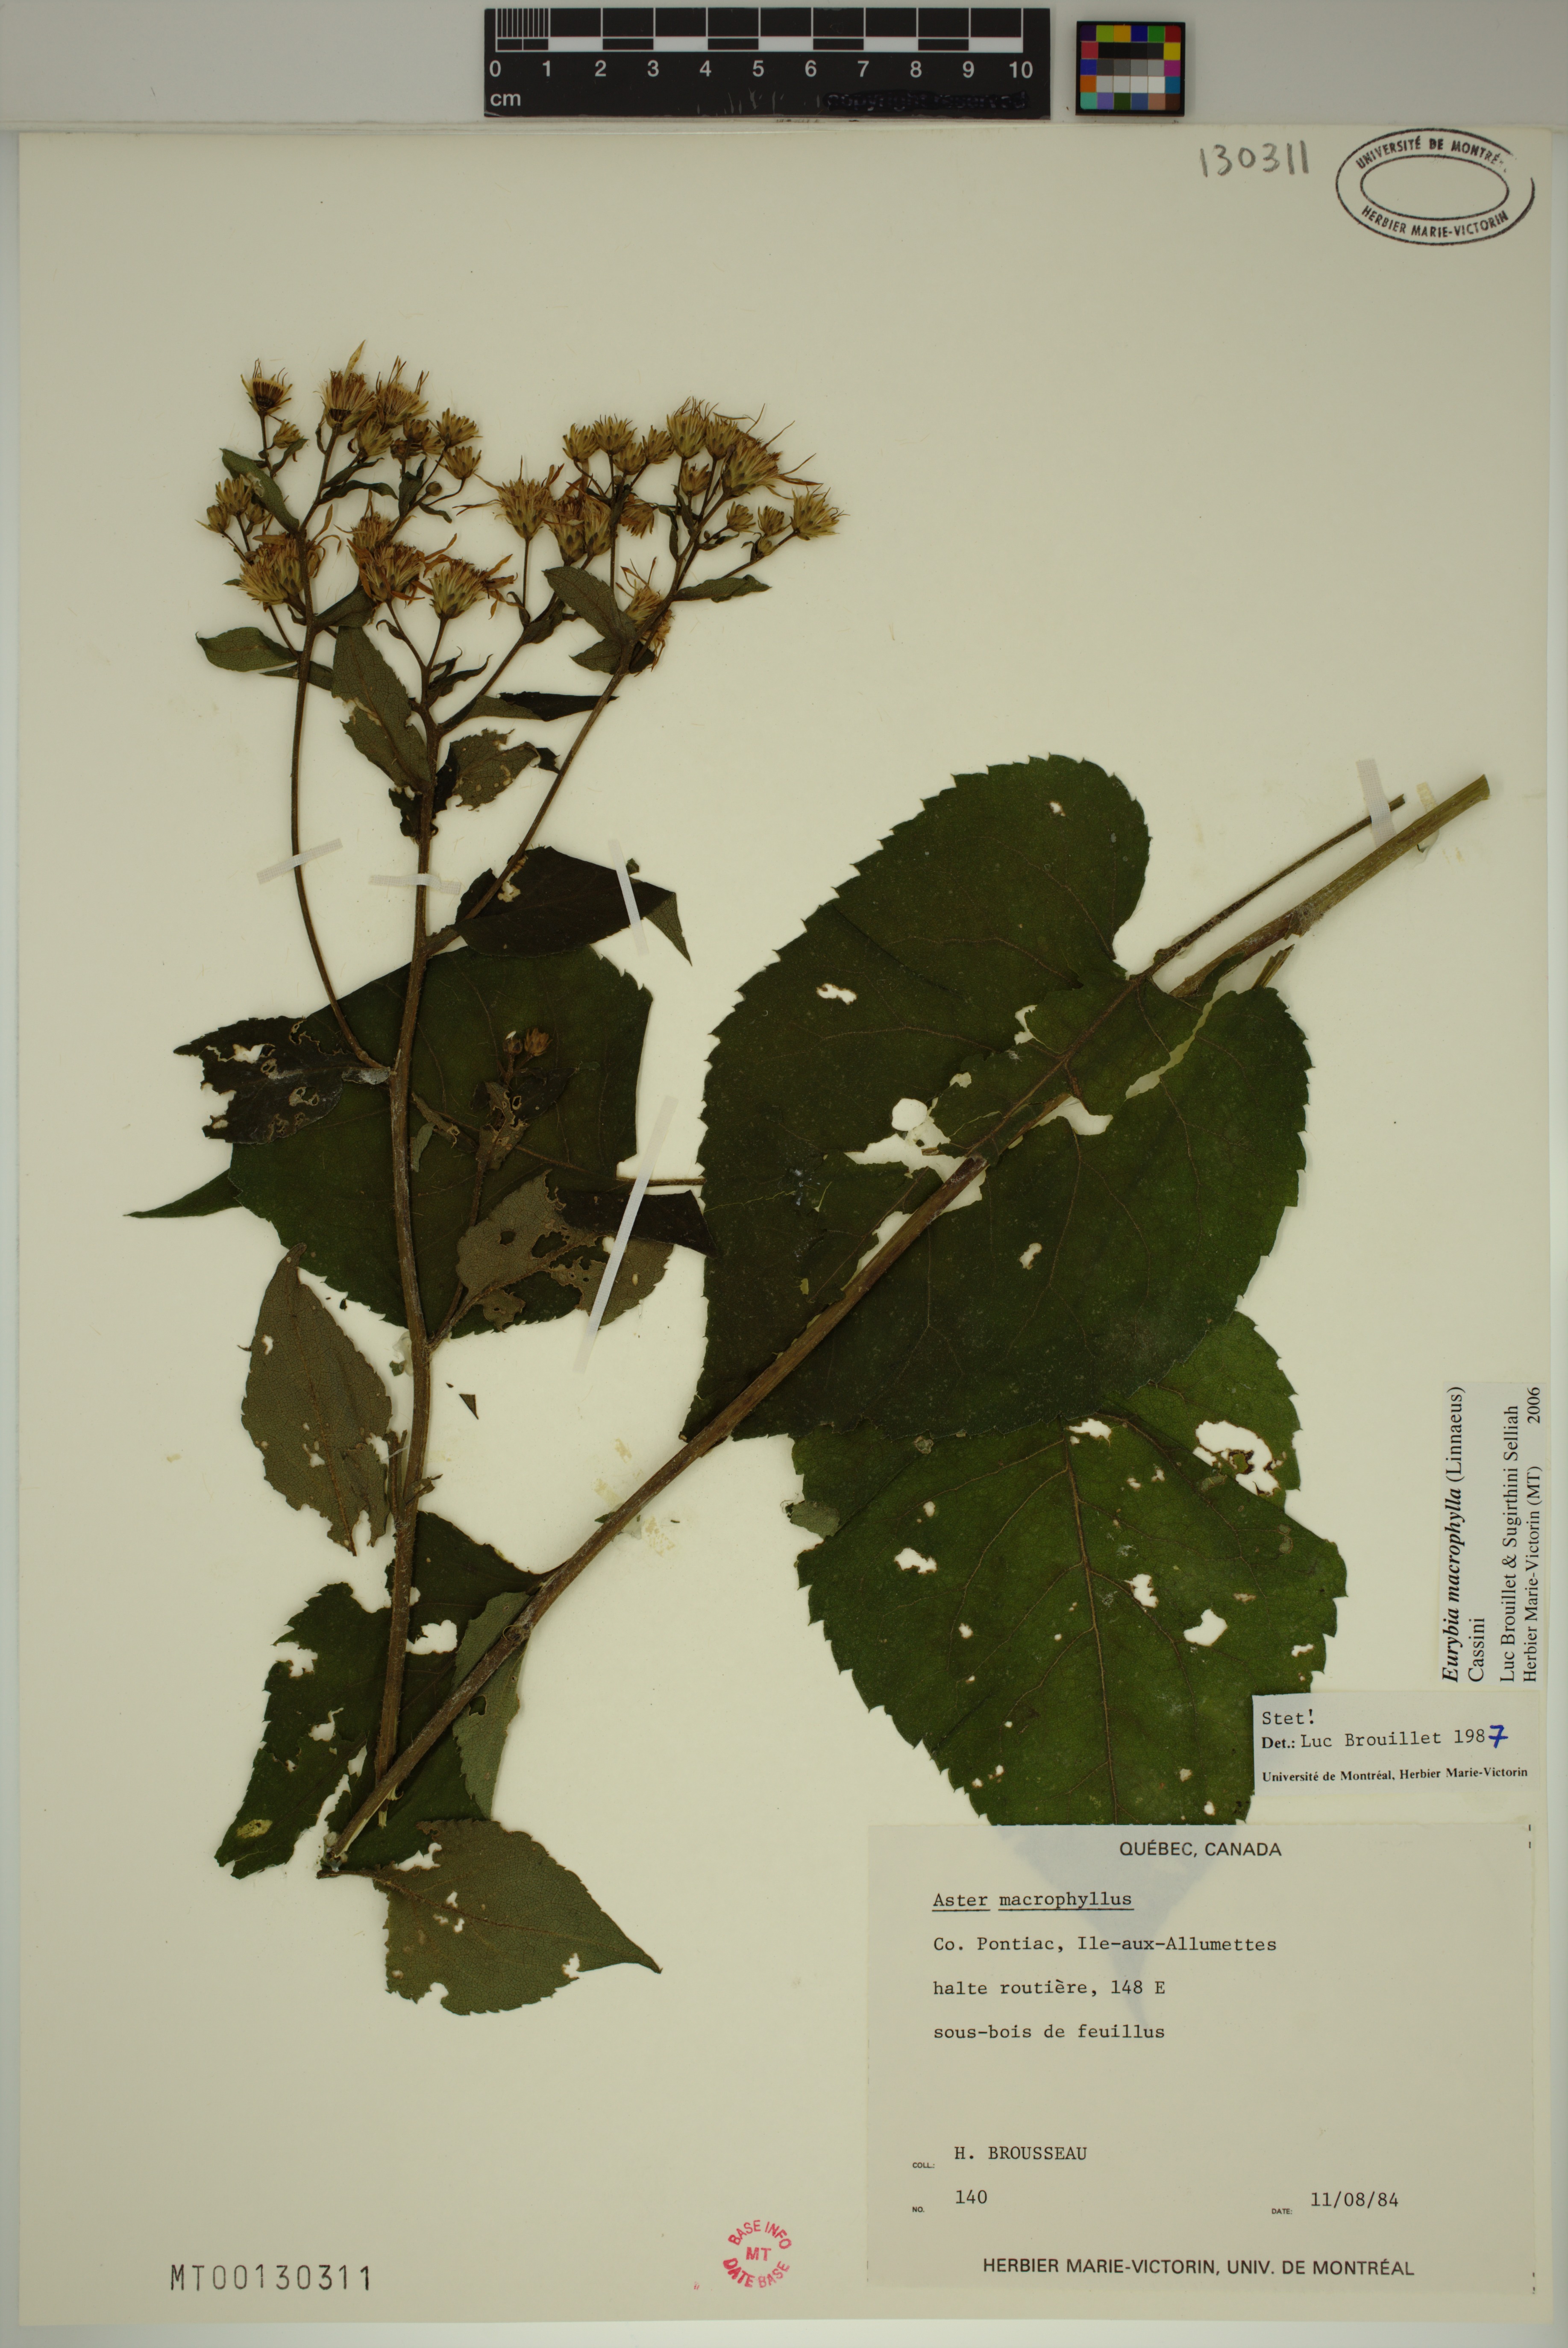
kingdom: Plantae
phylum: Tracheophyta
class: Magnoliopsida
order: Asterales
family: Asteraceae
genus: Eurybia
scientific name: Eurybia macrophylla
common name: Big-leaved aster
